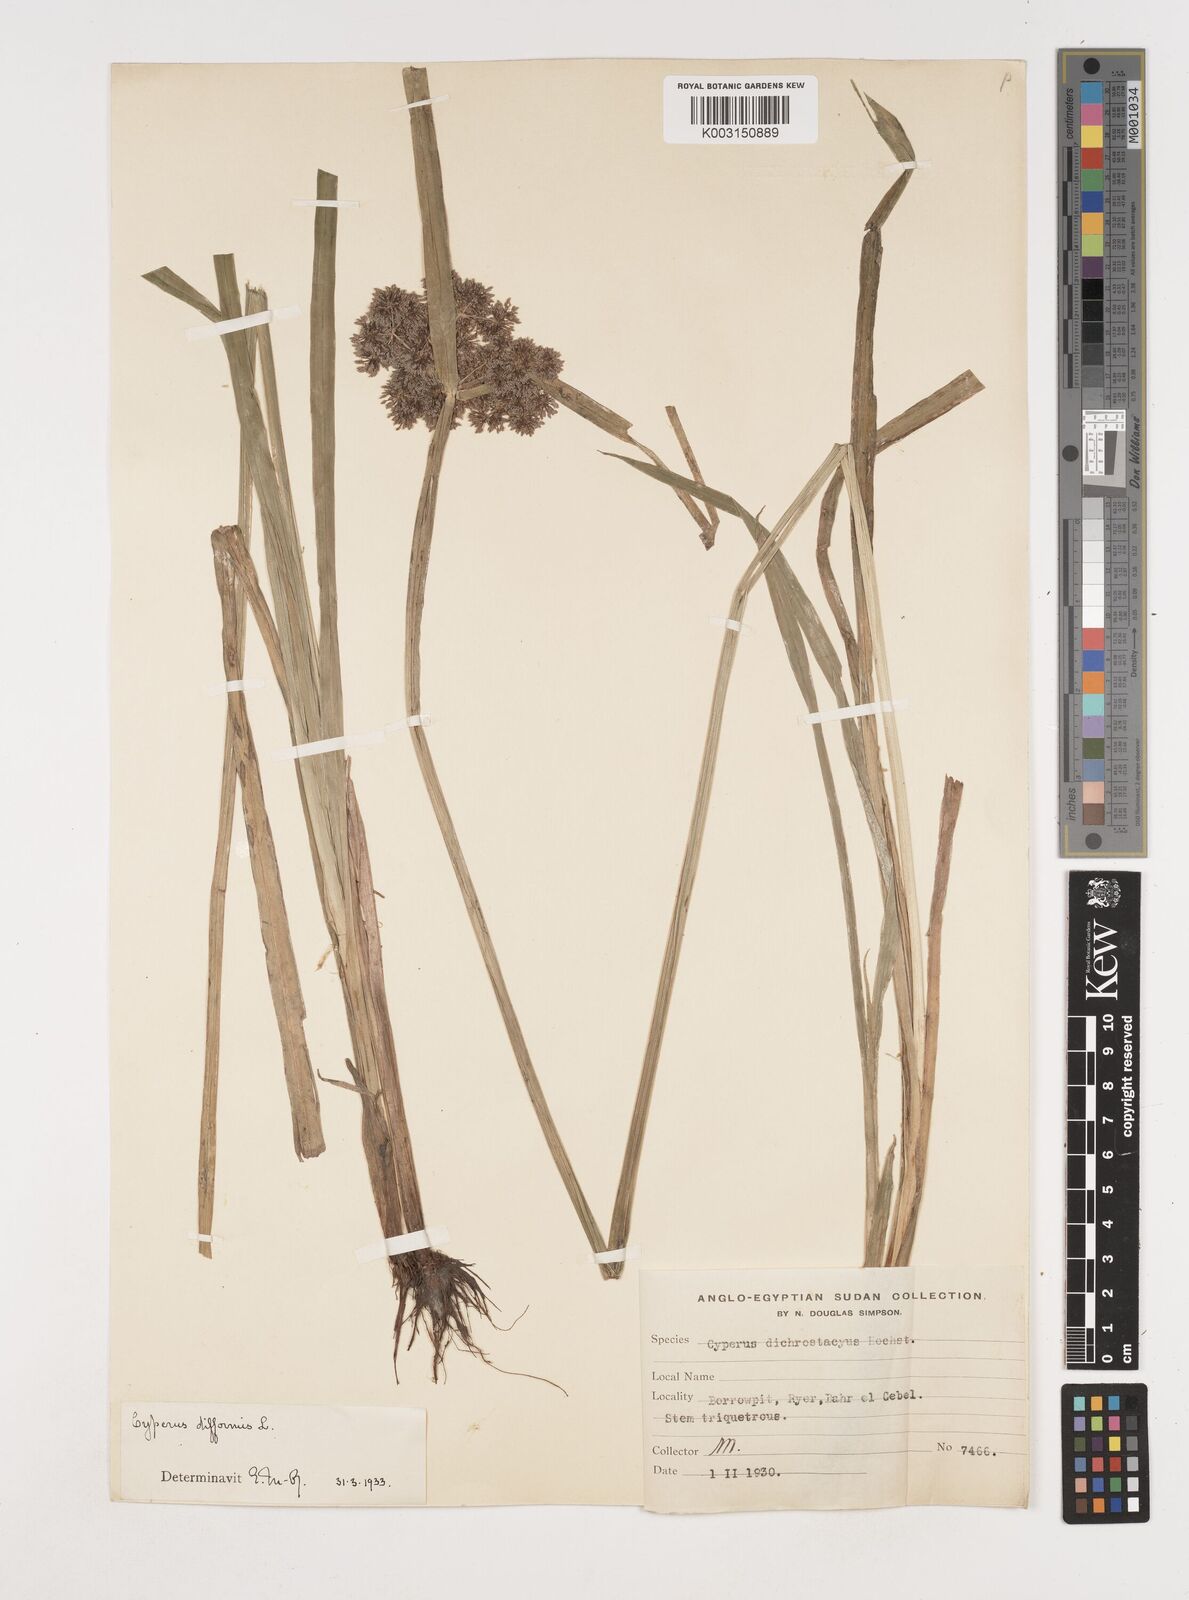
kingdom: Plantae
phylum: Tracheophyta
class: Liliopsida
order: Poales
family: Cyperaceae
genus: Cyperus
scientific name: Cyperus difformis
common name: Variable flatsedge
